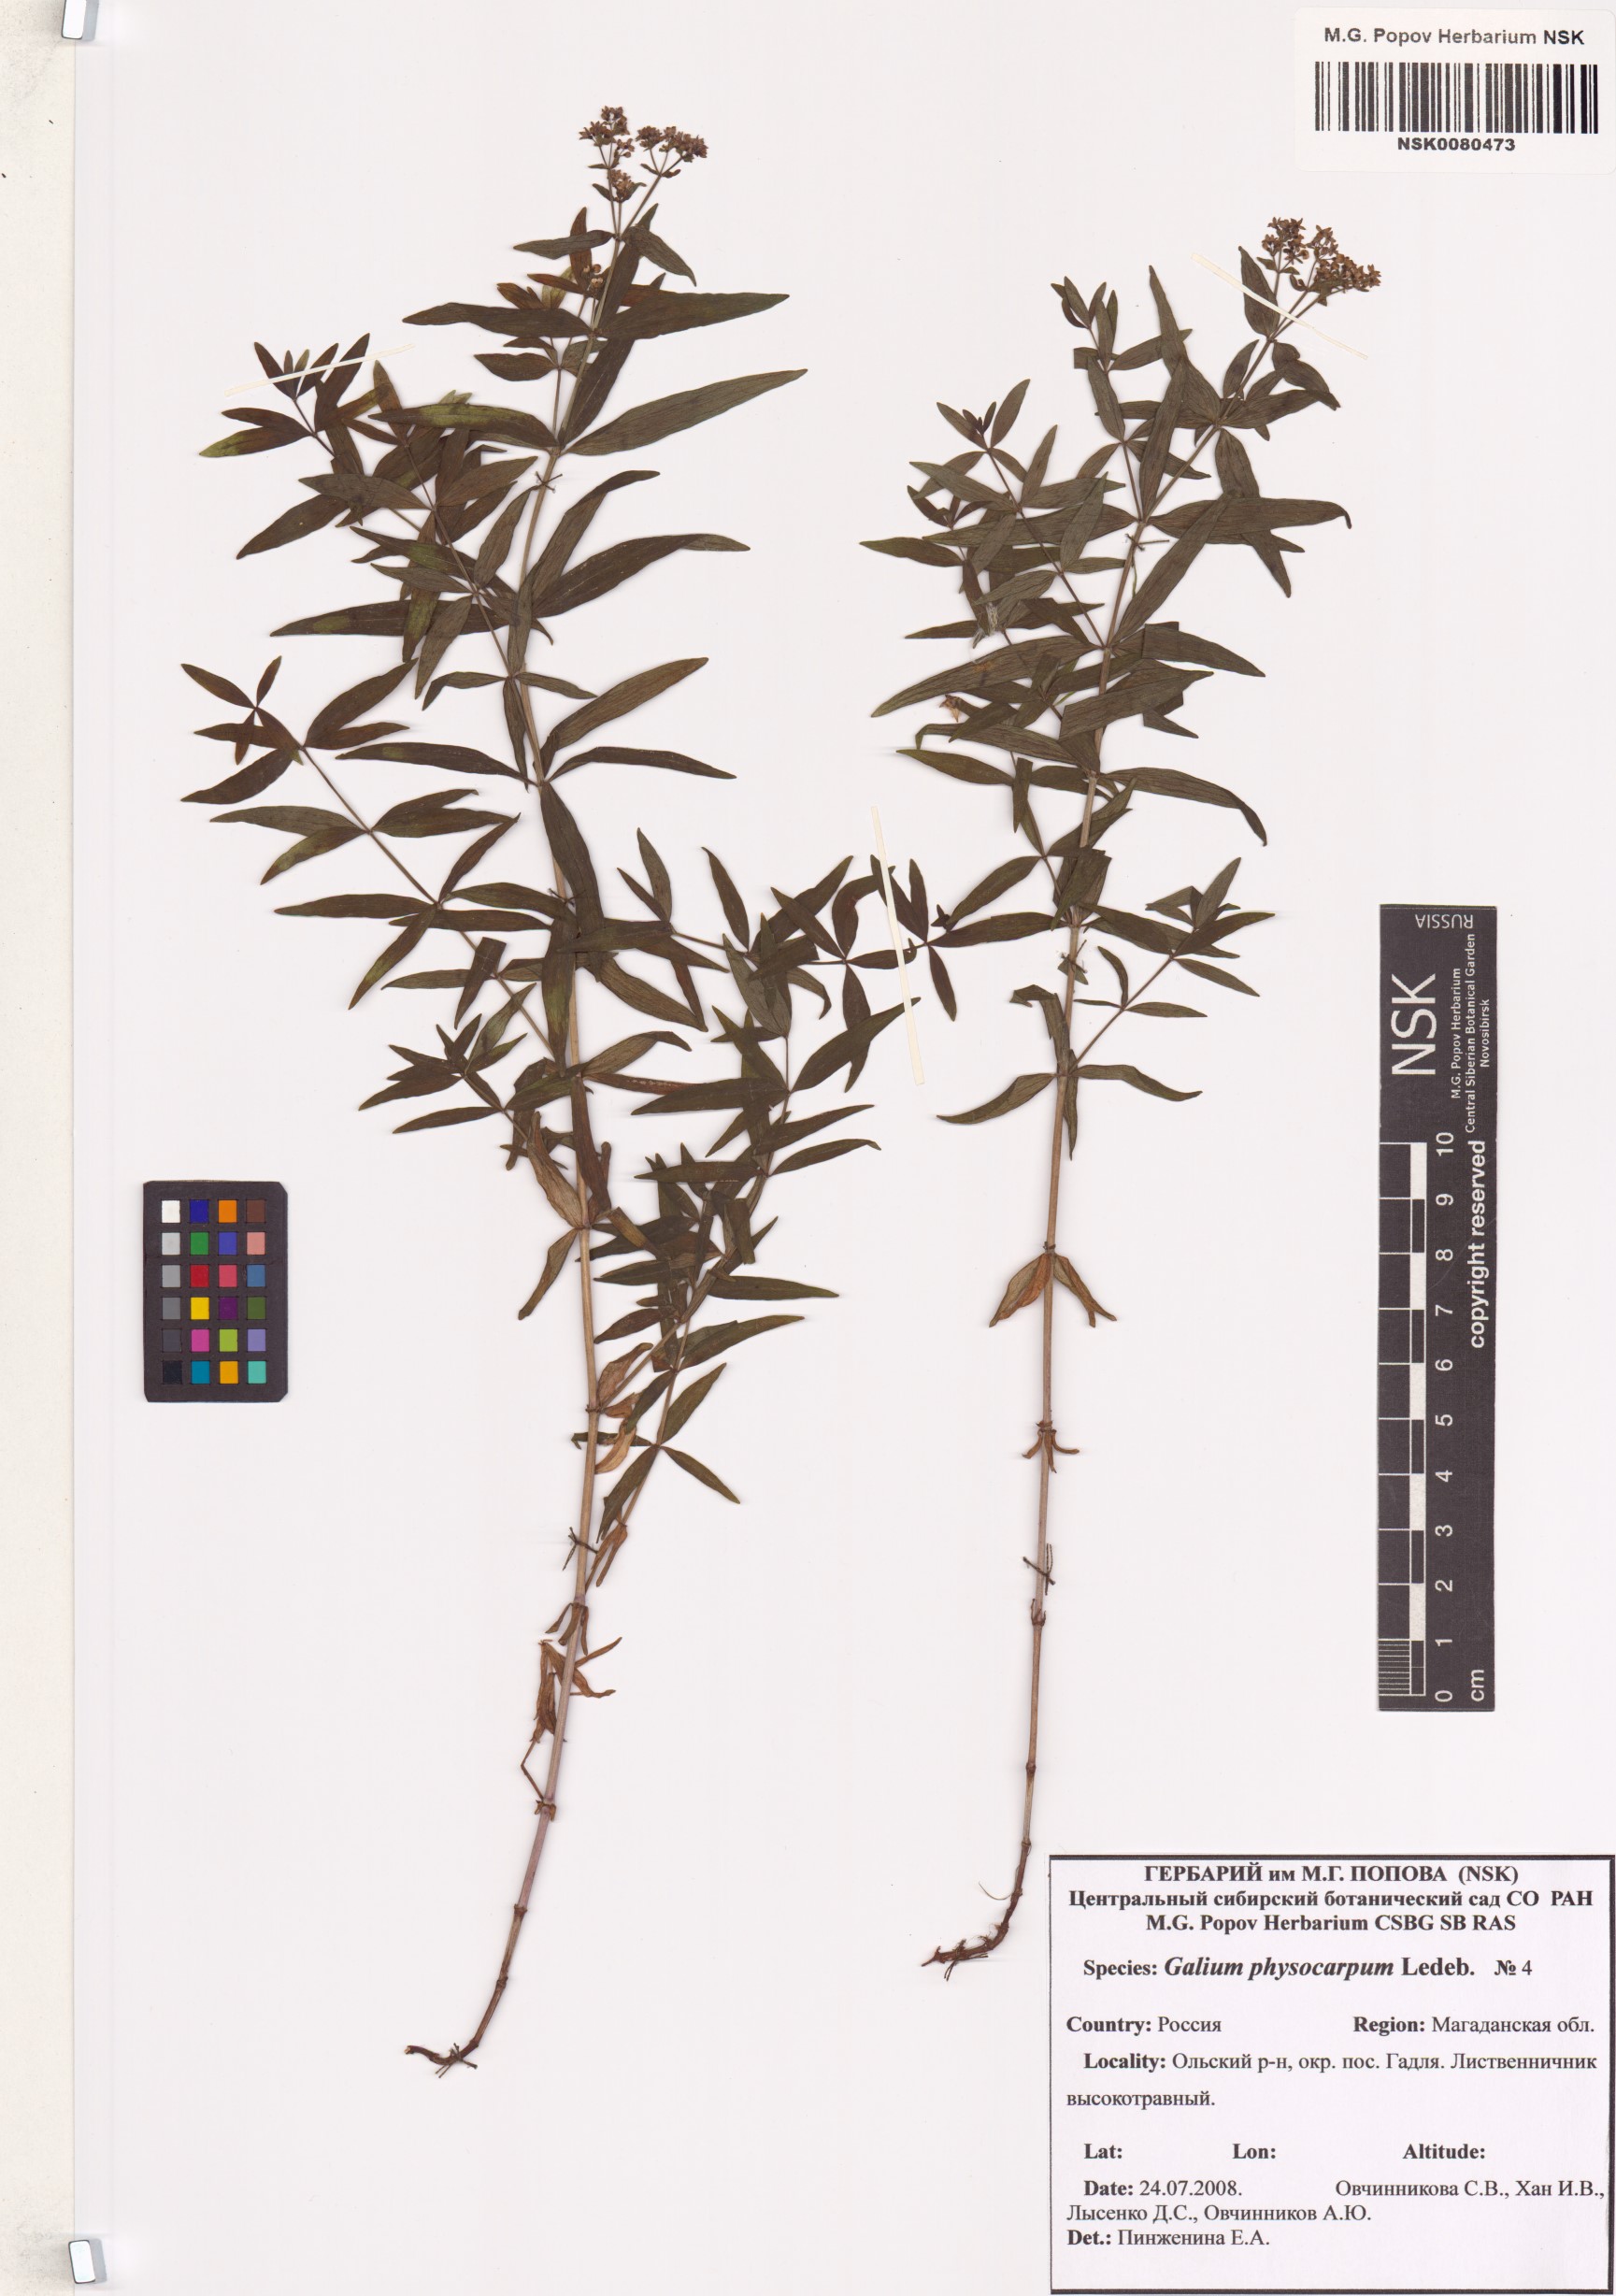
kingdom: Plantae
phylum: Tracheophyta
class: Magnoliopsida
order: Gentianales
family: Rubiaceae
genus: Galium
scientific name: Galium rubioides
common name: European bedstraw
